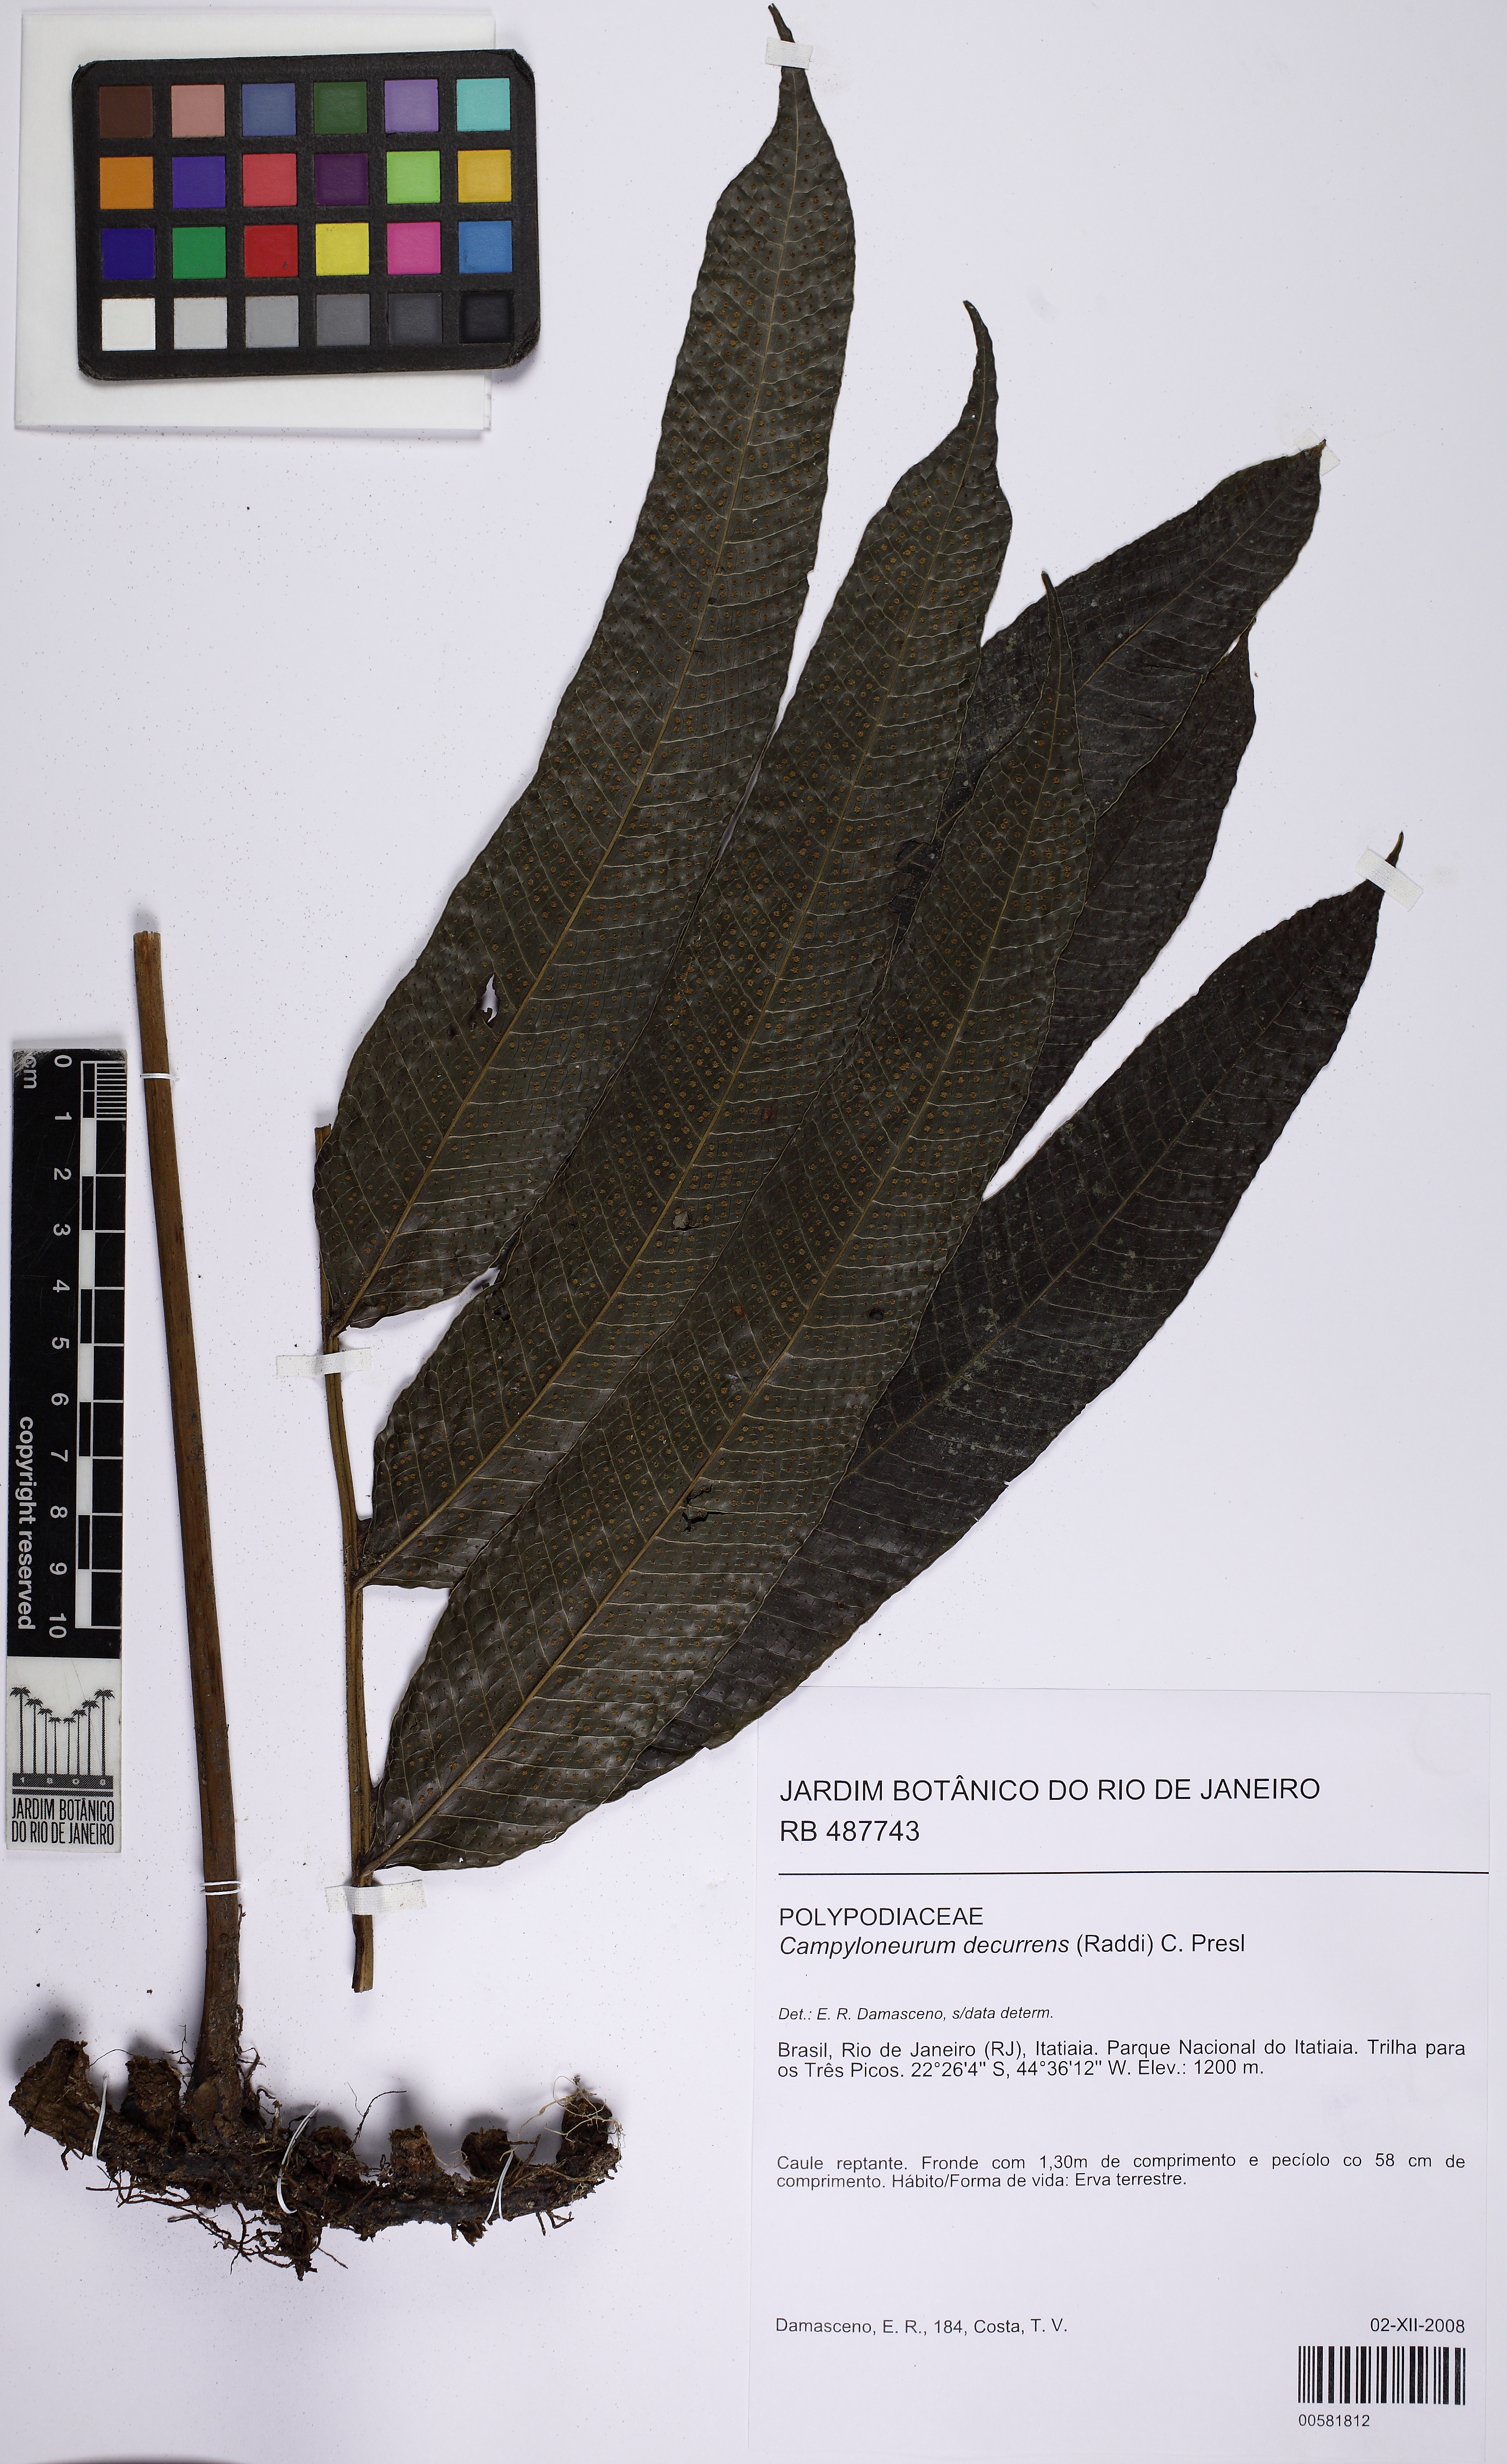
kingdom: Plantae
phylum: Tracheophyta
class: Polypodiopsida
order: Polypodiales
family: Polypodiaceae
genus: Campyloneurum
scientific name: Campyloneurum decurrens
